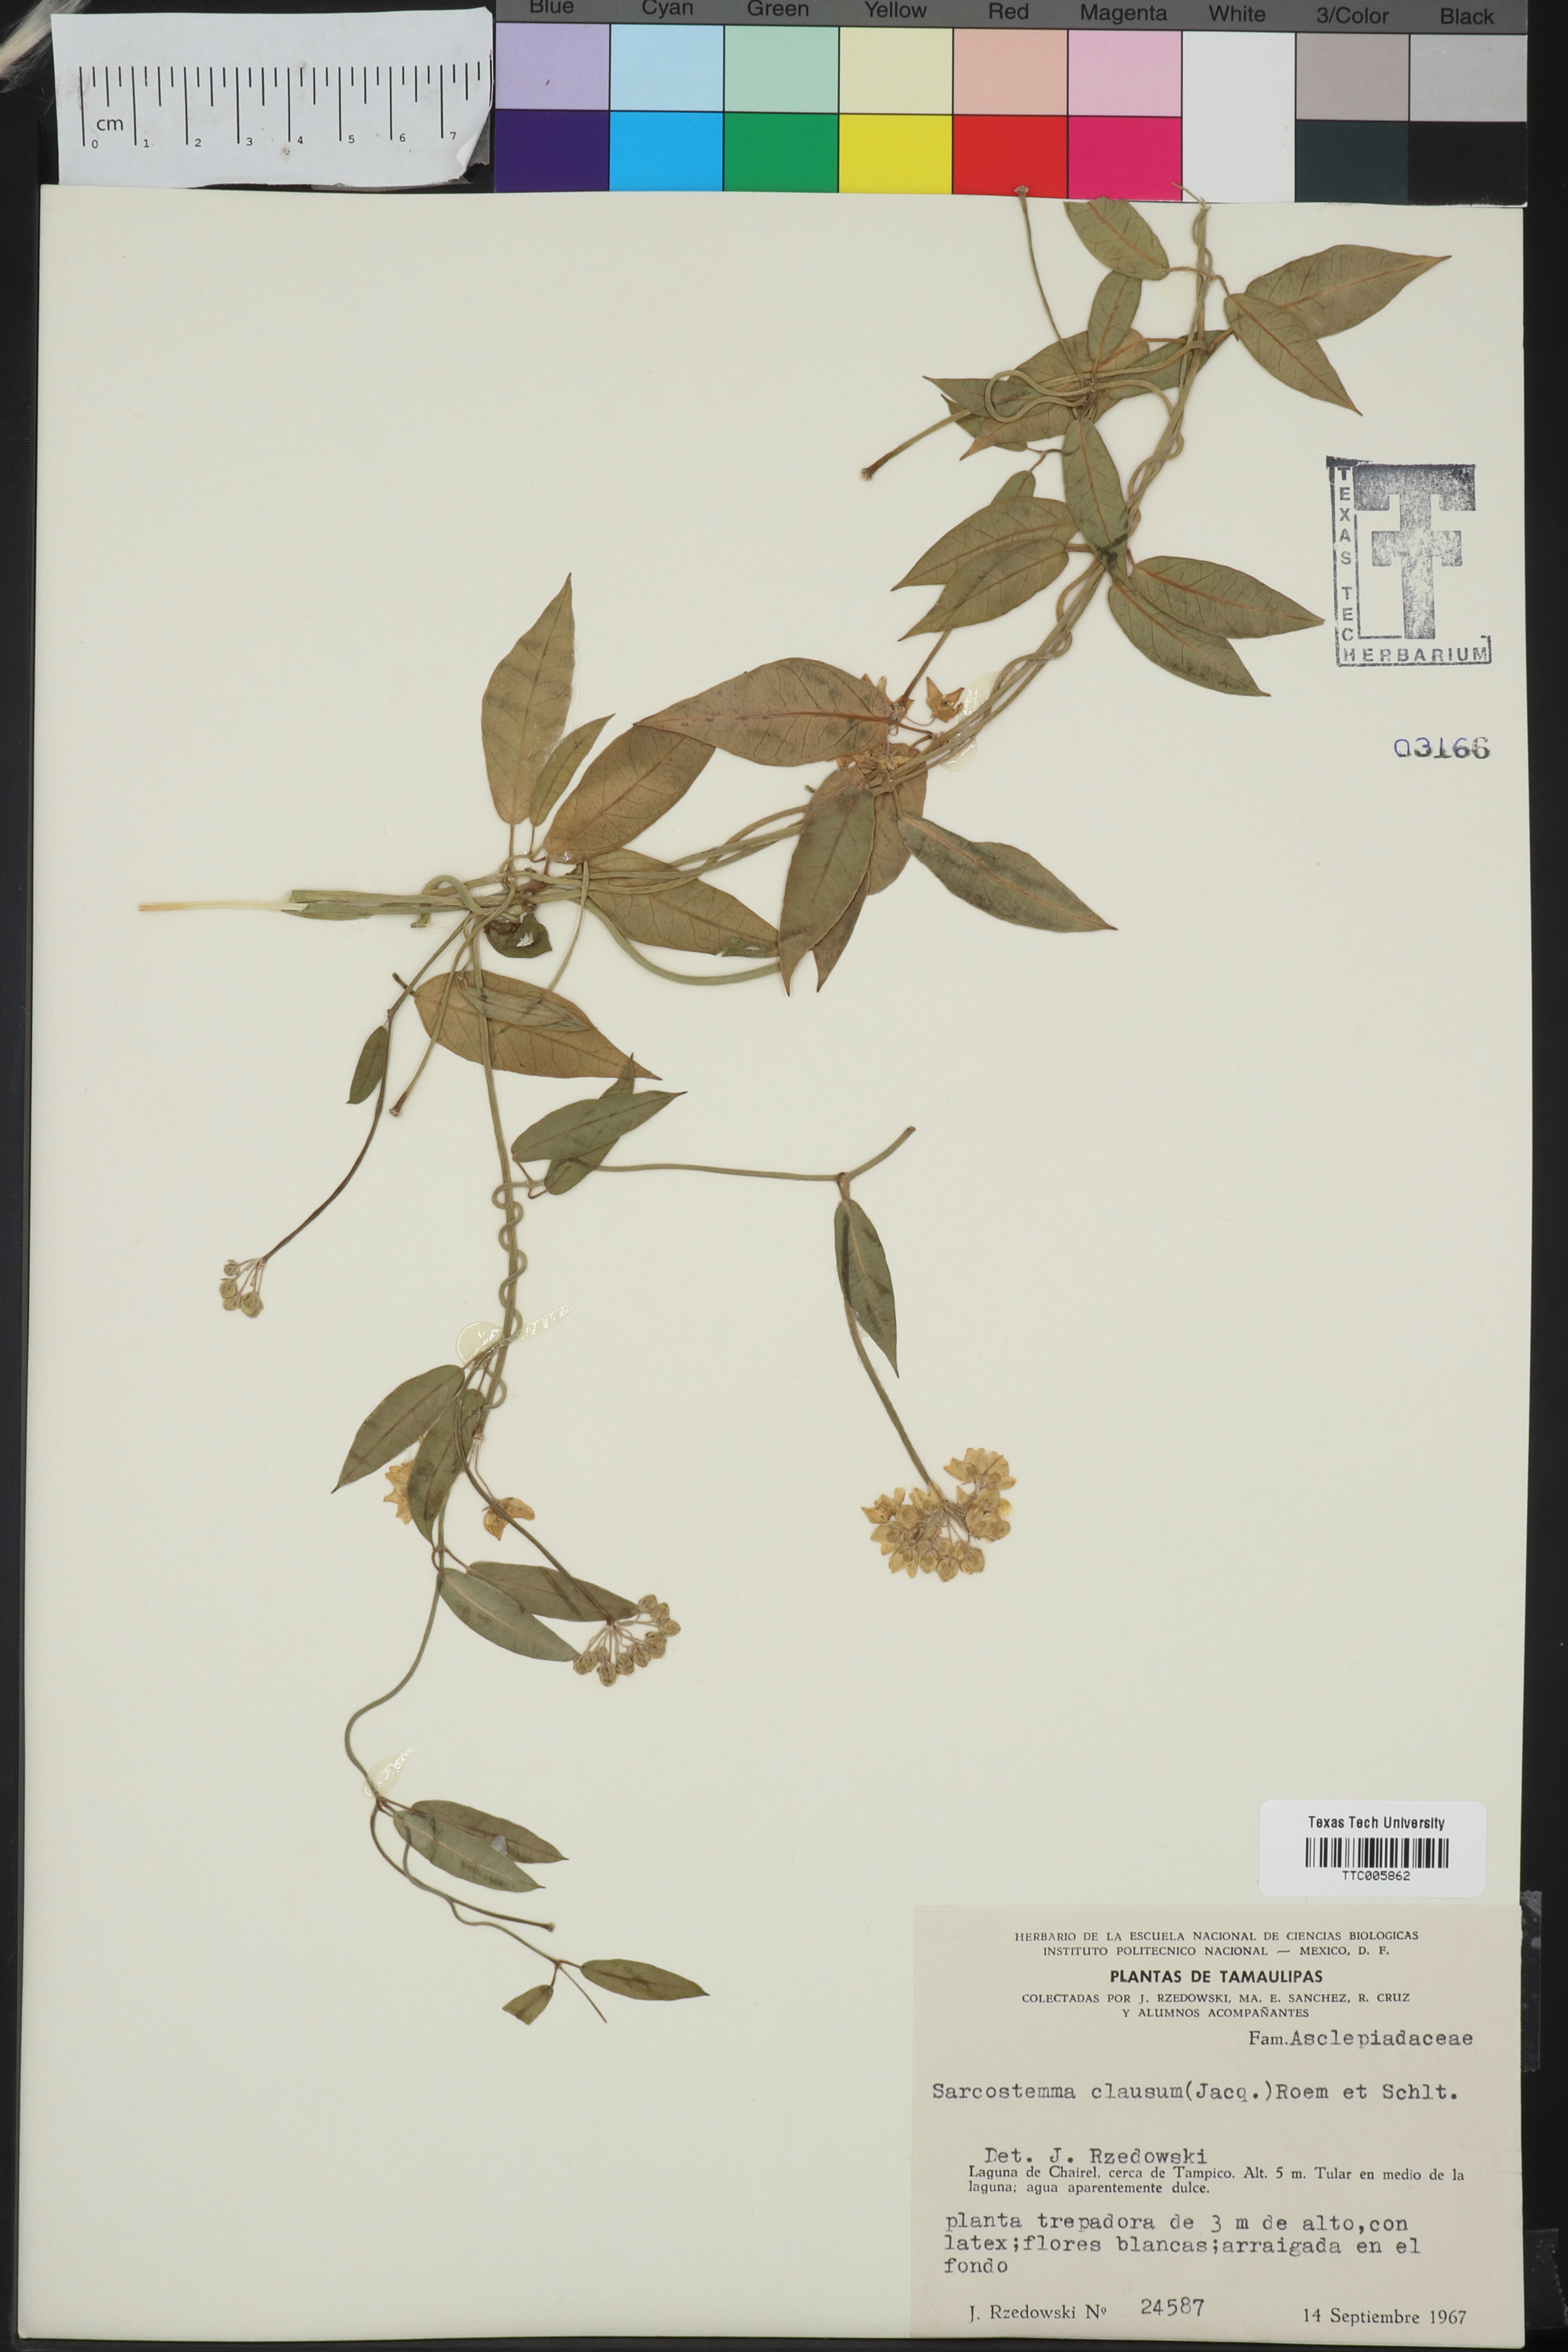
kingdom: Plantae
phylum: Tracheophyta
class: Magnoliopsida
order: Gentianales
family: Apocynaceae
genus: Funastrum
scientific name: Funastrum clausum
